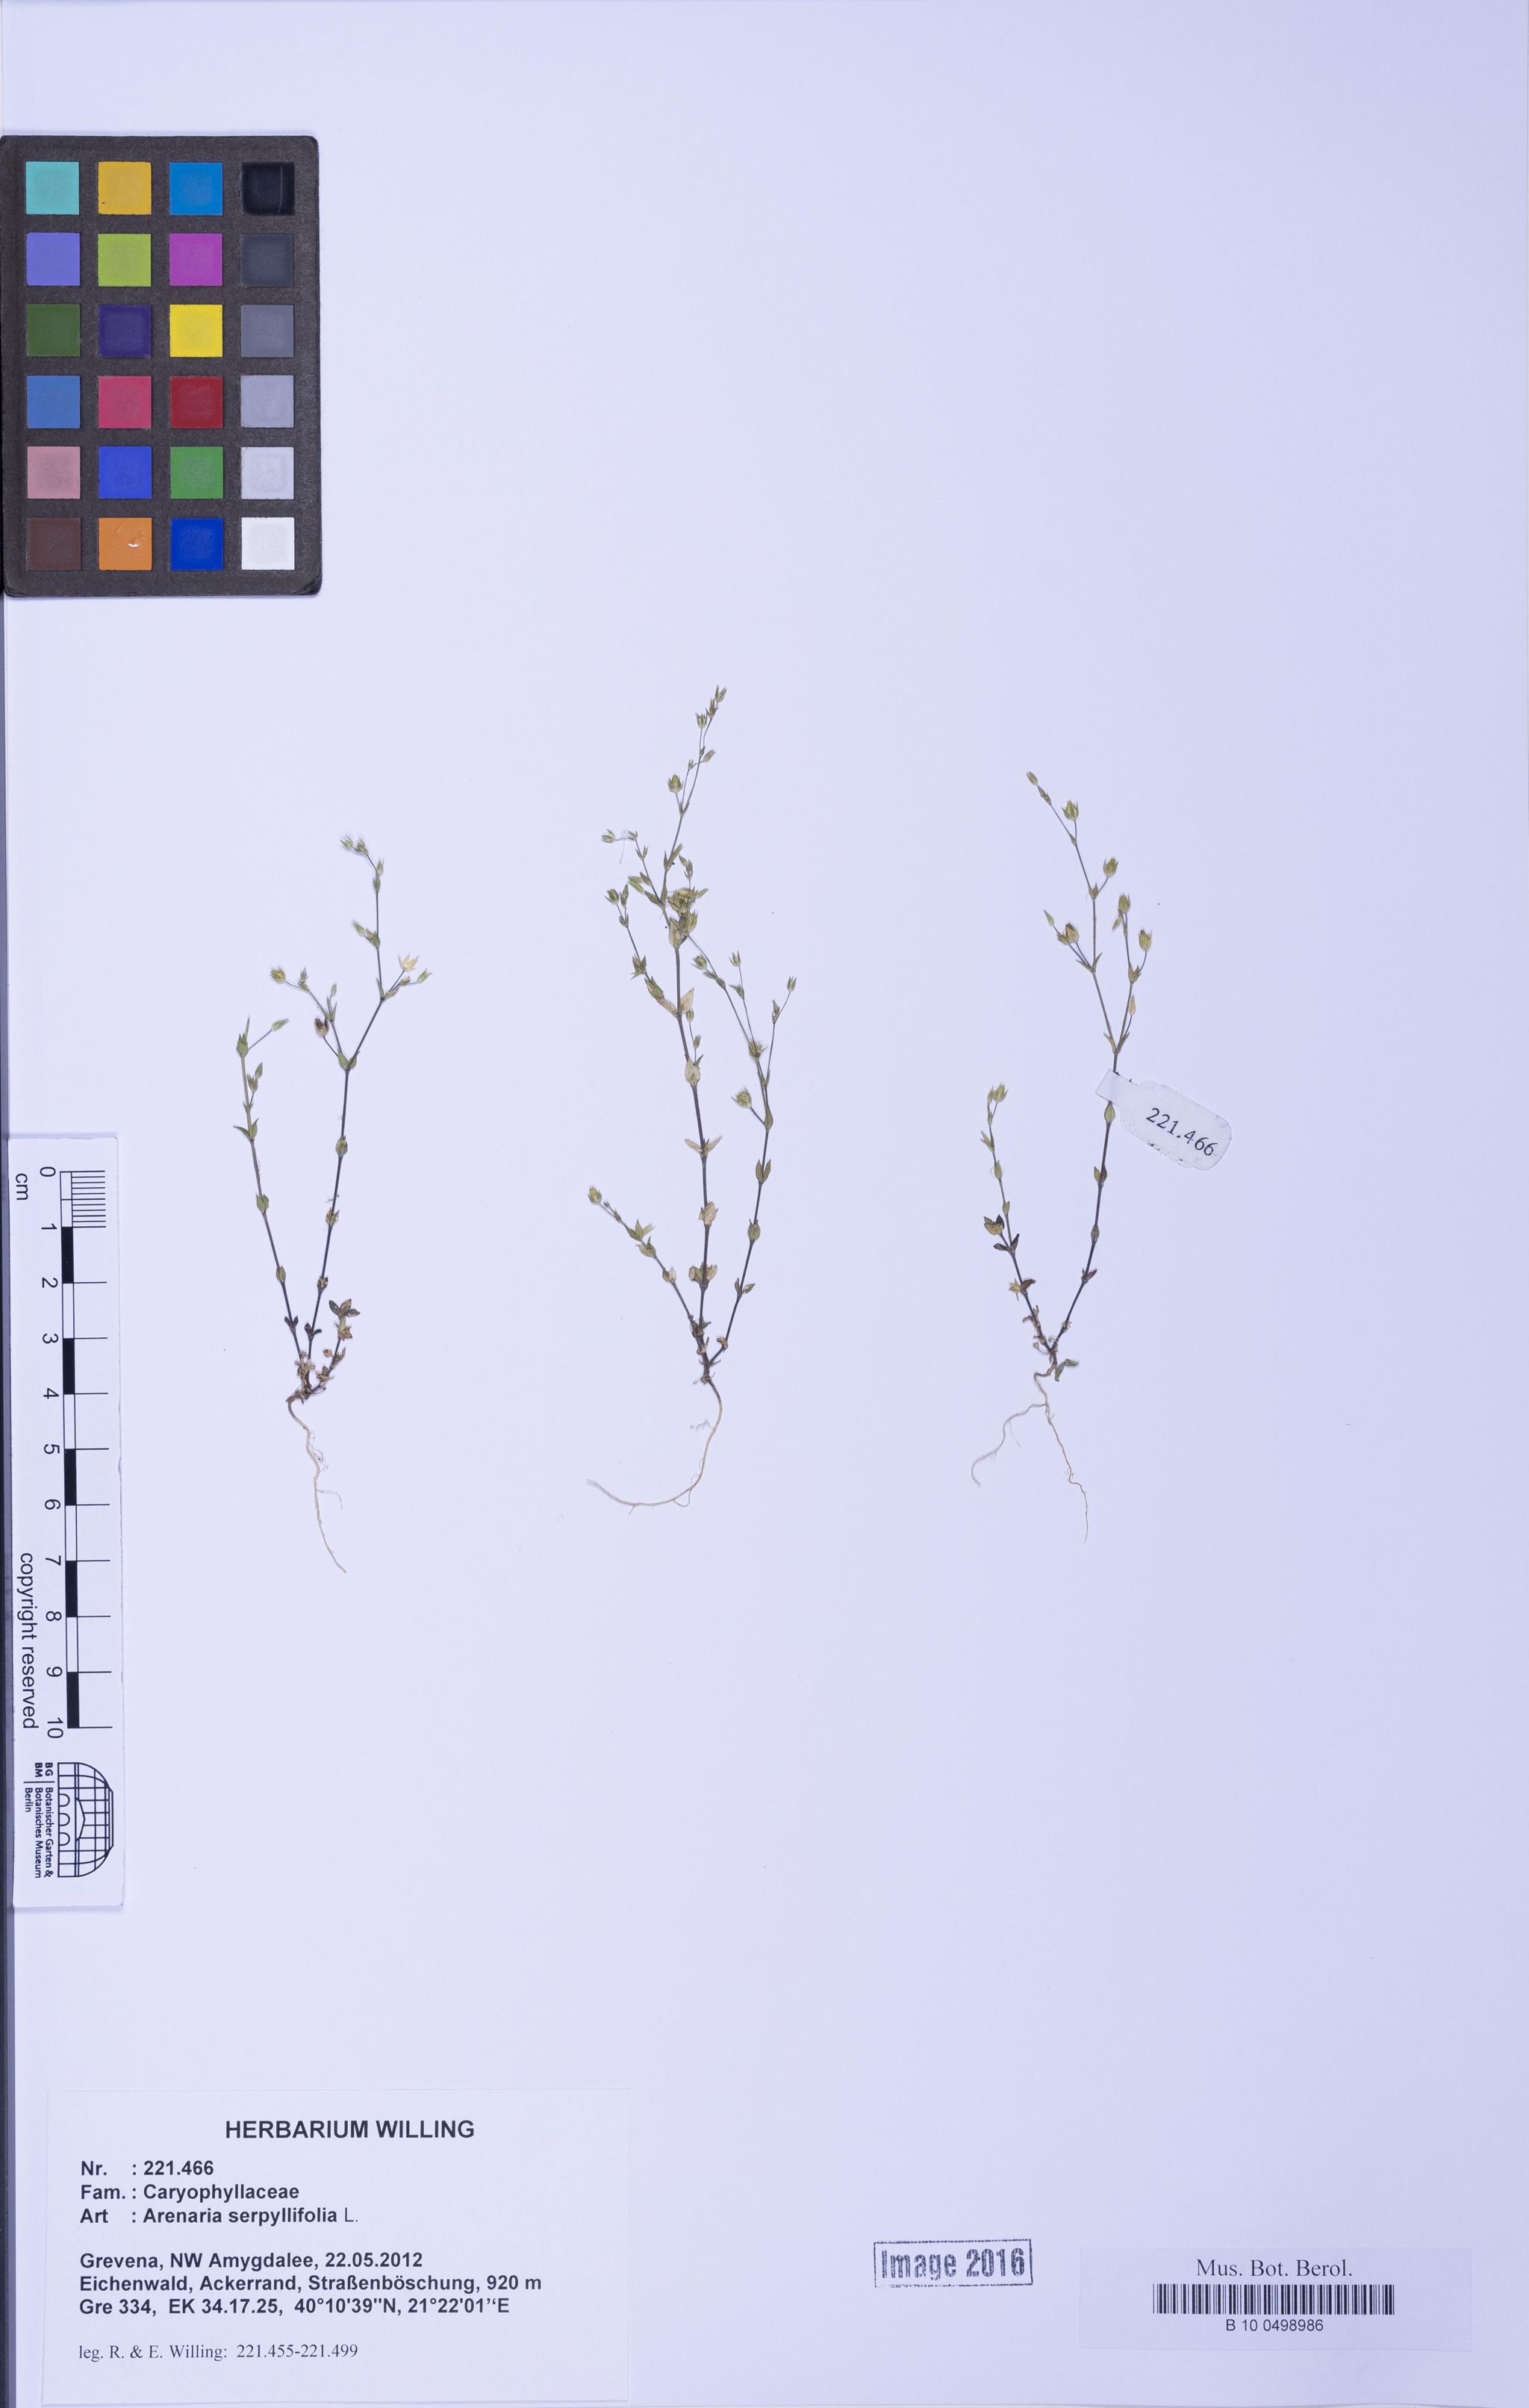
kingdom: Plantae
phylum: Tracheophyta
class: Magnoliopsida
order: Caryophyllales
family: Caryophyllaceae
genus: Arenaria
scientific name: Arenaria serpyllifolia
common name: Thyme-leaved sandwort
